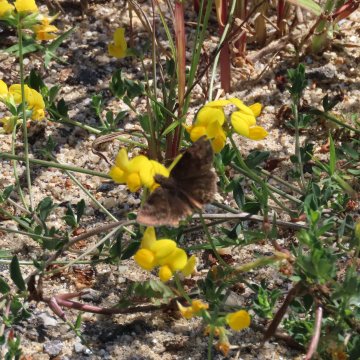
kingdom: Animalia
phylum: Arthropoda
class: Insecta
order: Lepidoptera
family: Hesperiidae
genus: Gesta
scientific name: Gesta
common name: Wild Indigo Duskywing
